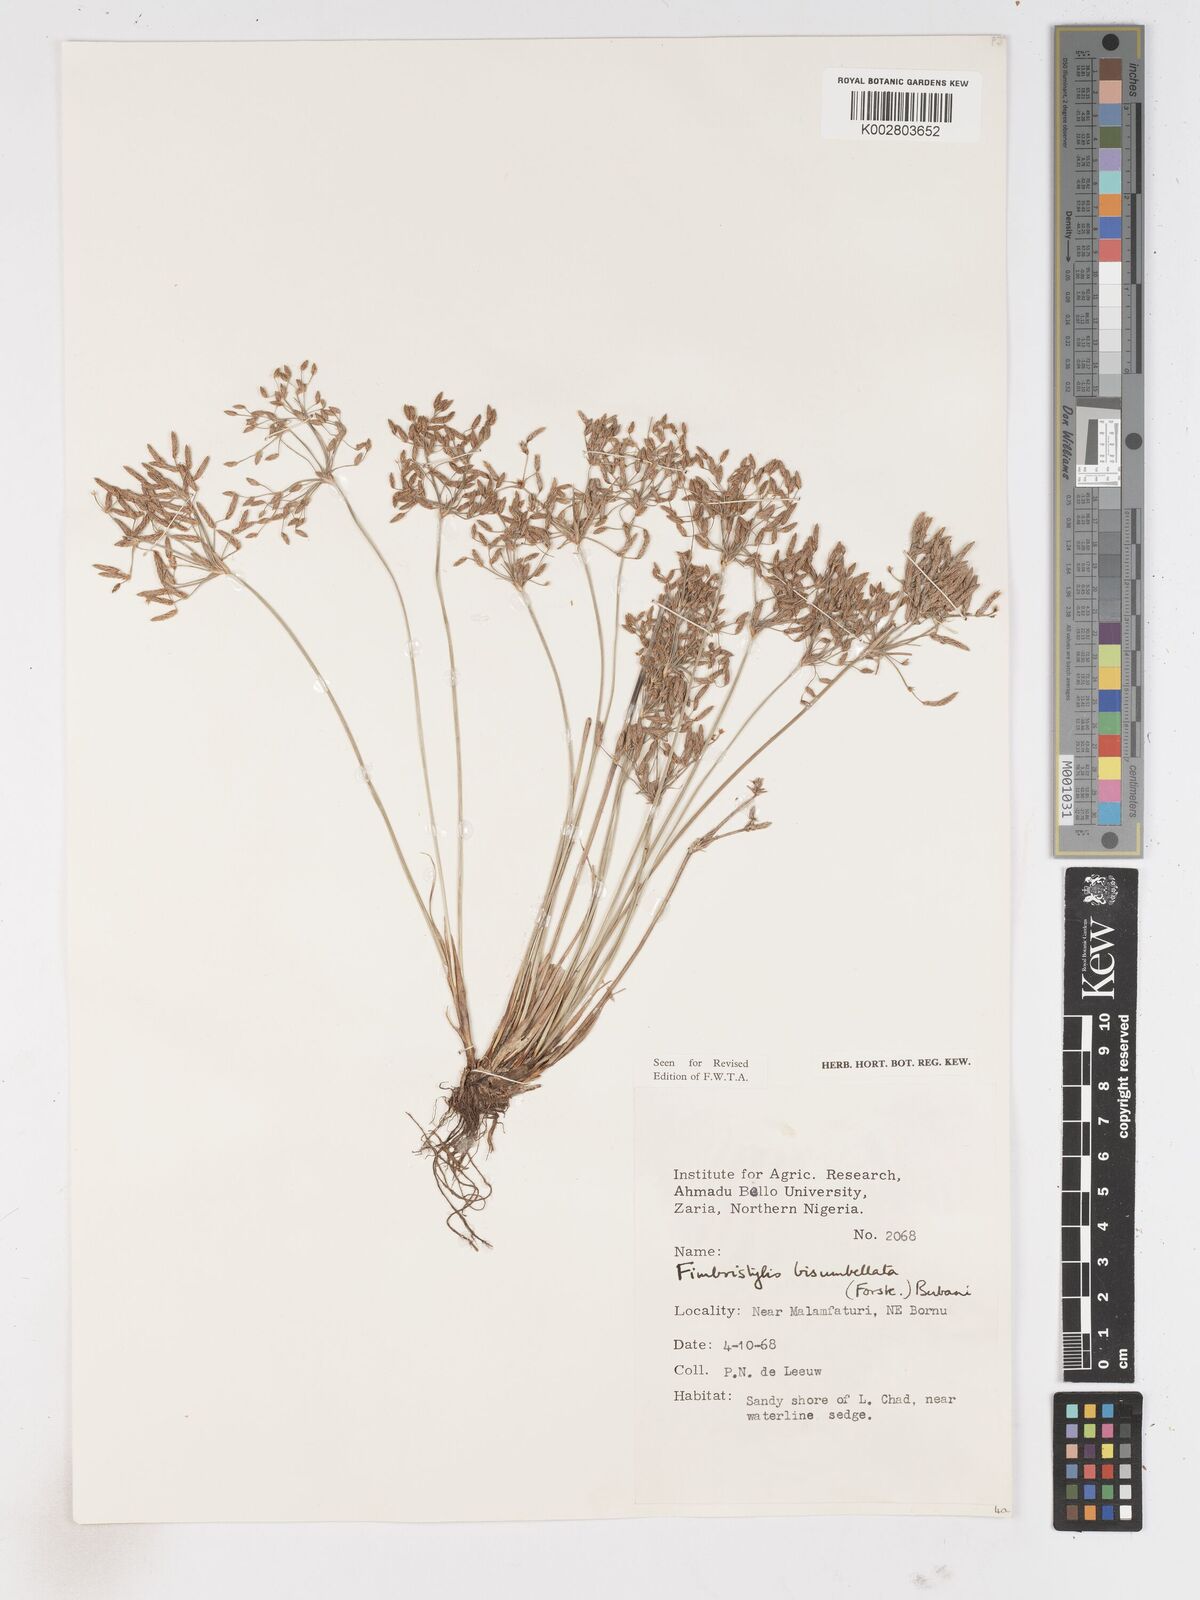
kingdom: Plantae
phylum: Tracheophyta
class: Liliopsida
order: Poales
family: Cyperaceae
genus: Fimbristylis
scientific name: Fimbristylis bisumbellata
